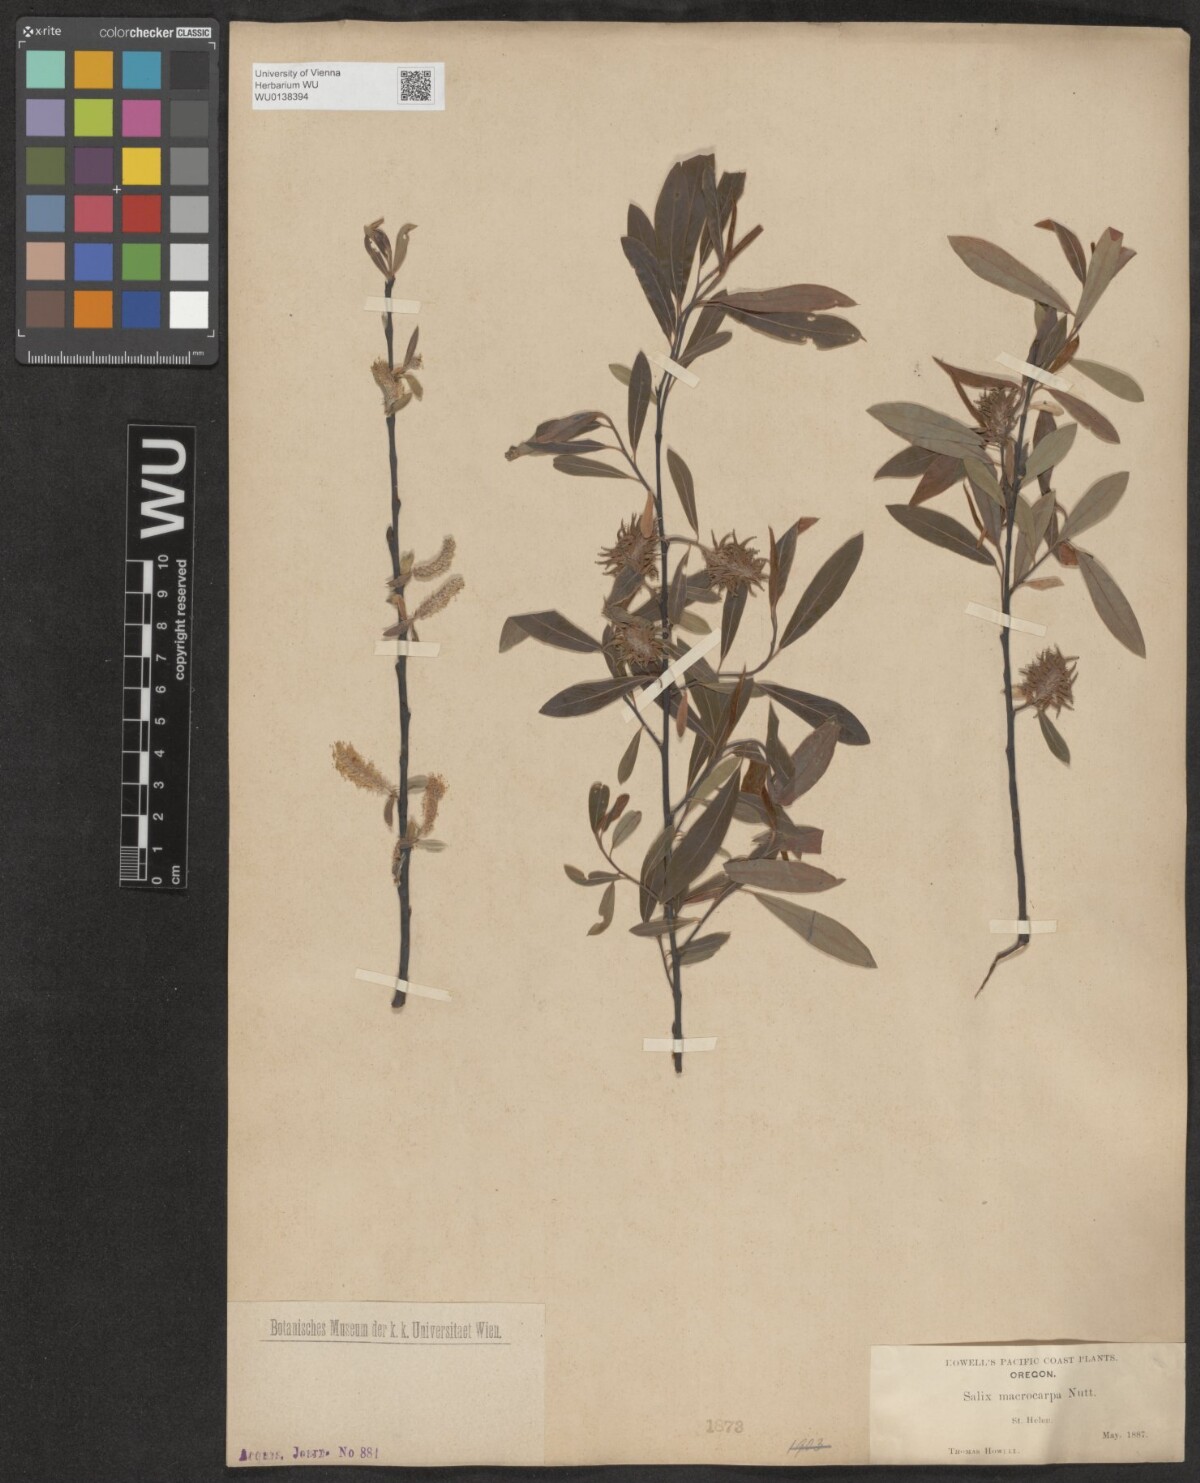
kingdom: Plantae
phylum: Tracheophyta
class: Magnoliopsida
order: Malpighiales
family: Salicaceae
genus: Salix
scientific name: Salix glauca
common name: Glaucous willow
